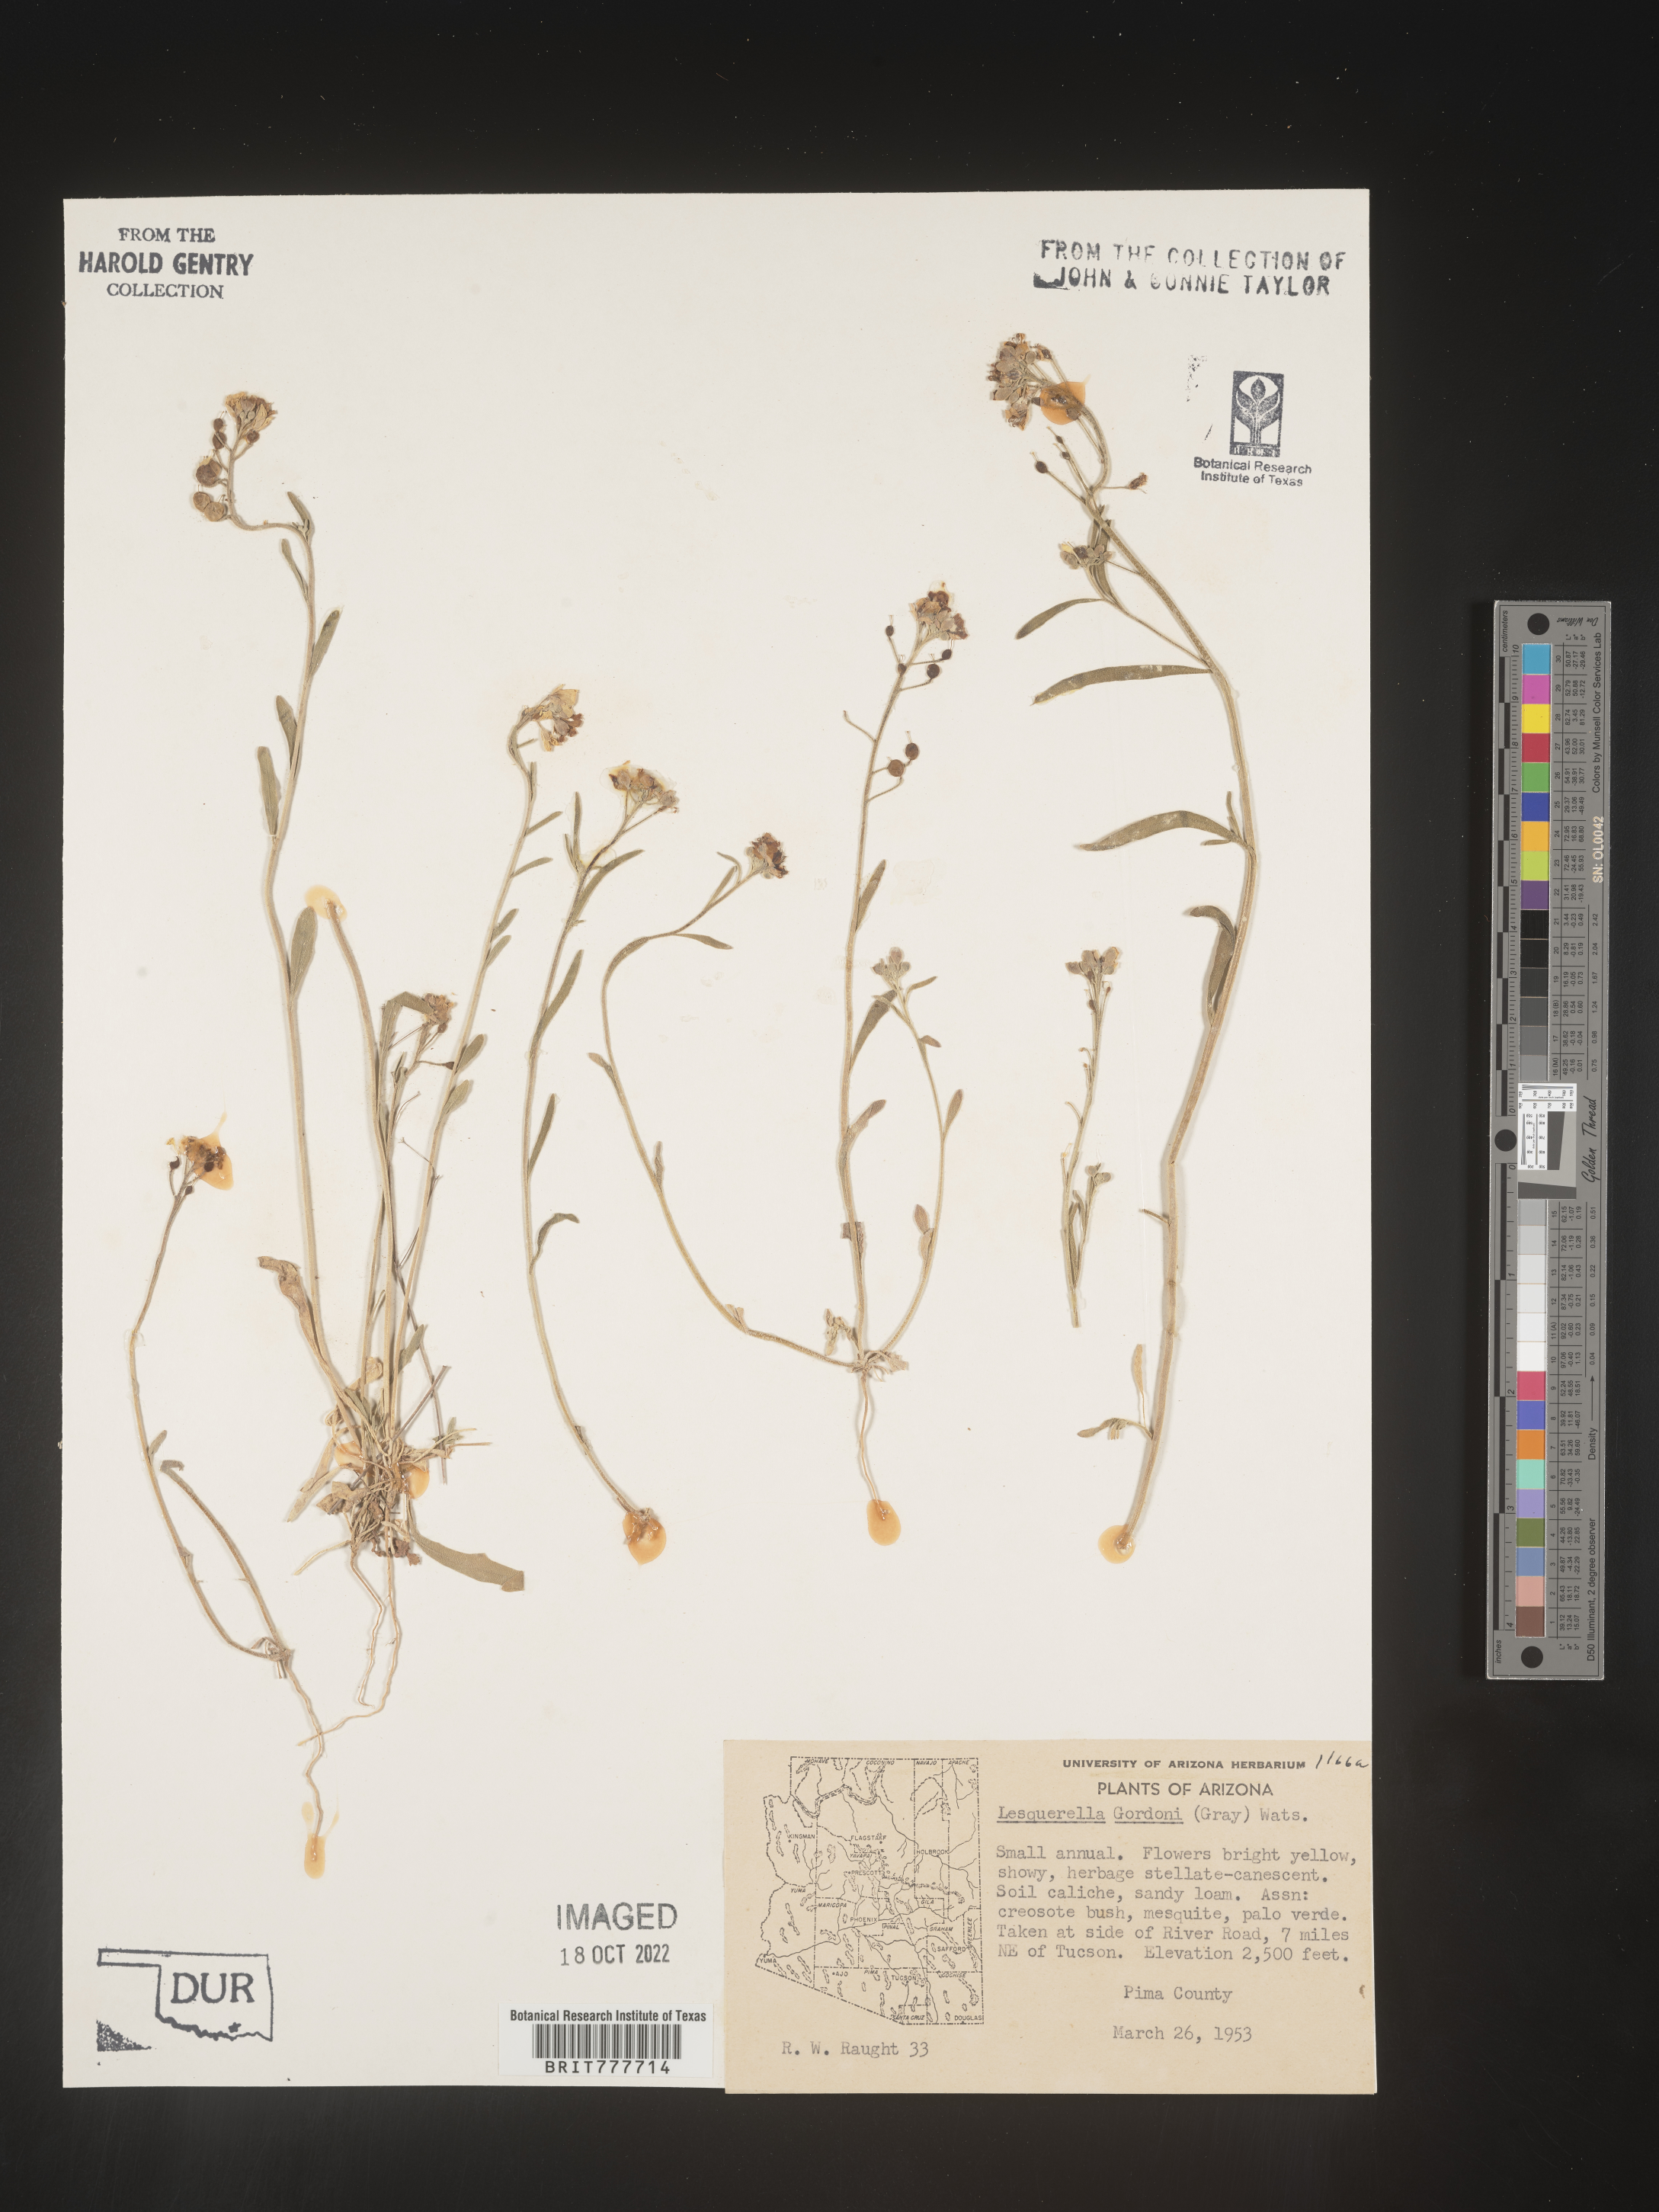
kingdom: Chromista
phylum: Cercozoa
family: Psammonobiotidae
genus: Lesquerella
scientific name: Lesquerella
